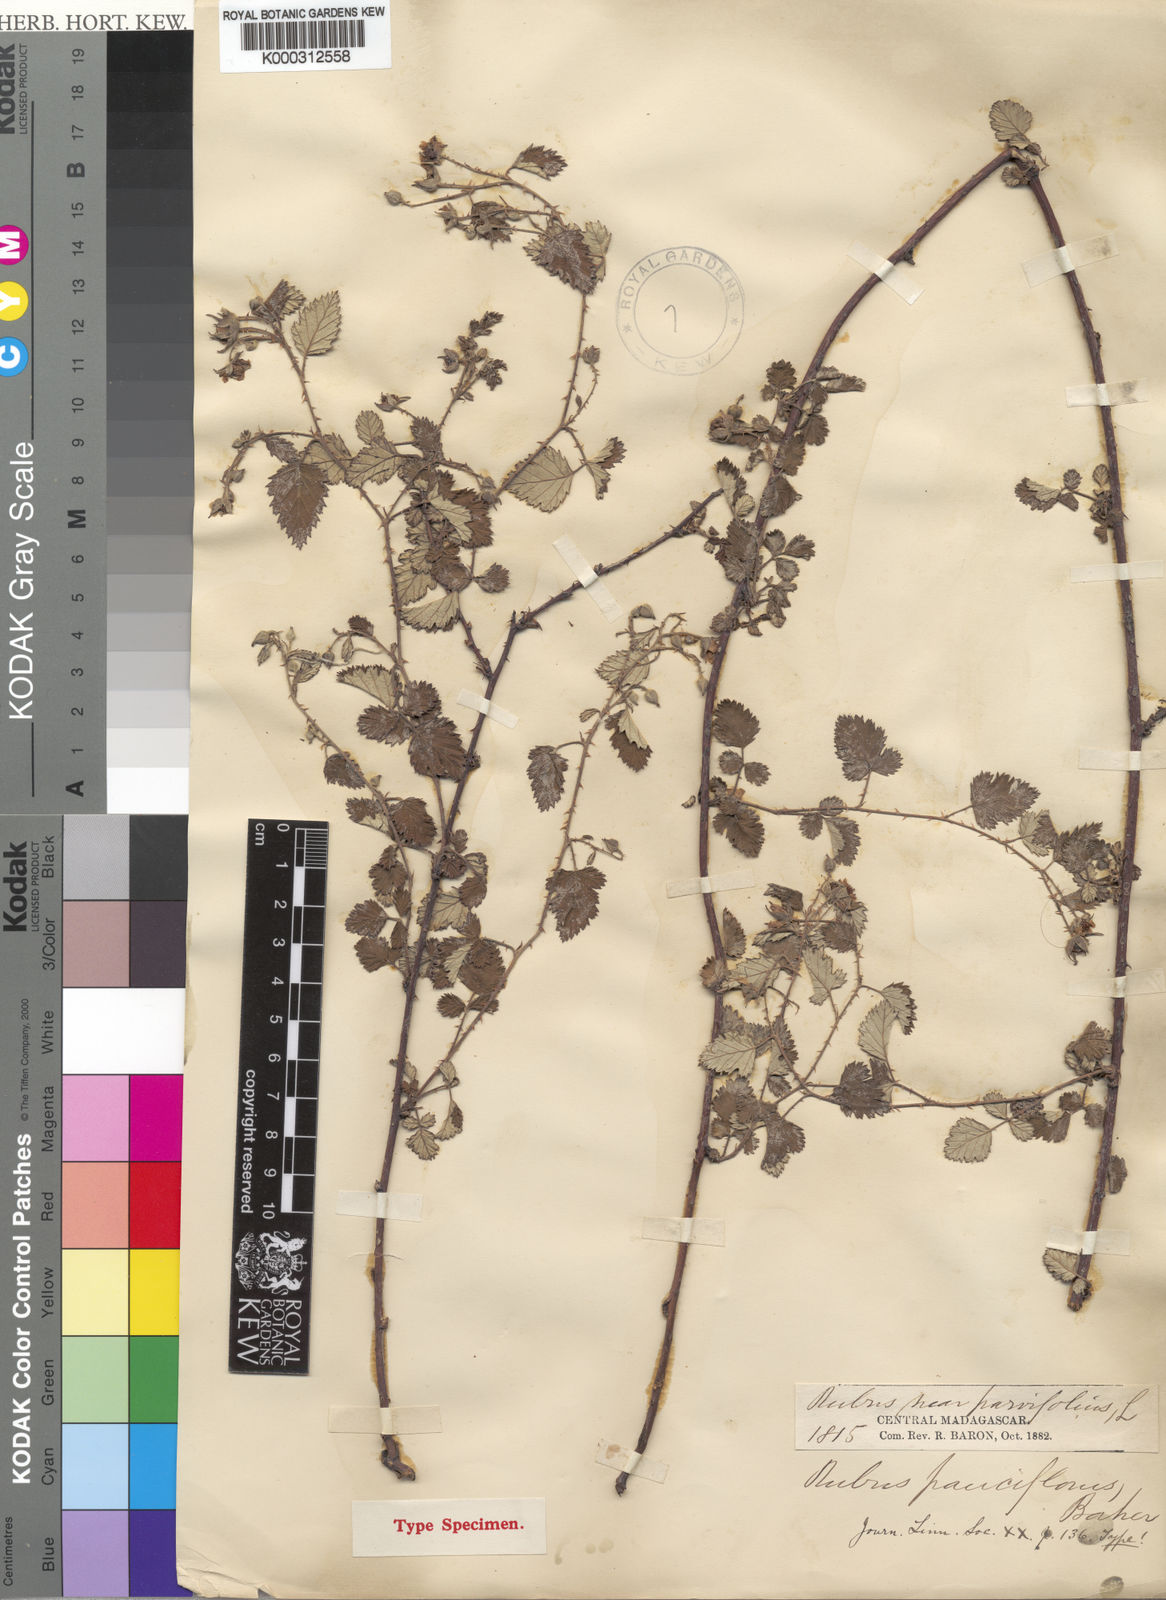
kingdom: Plantae
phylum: Tracheophyta
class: Magnoliopsida
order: Rosales
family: Rosaceae
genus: Rubus
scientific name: Rubus
